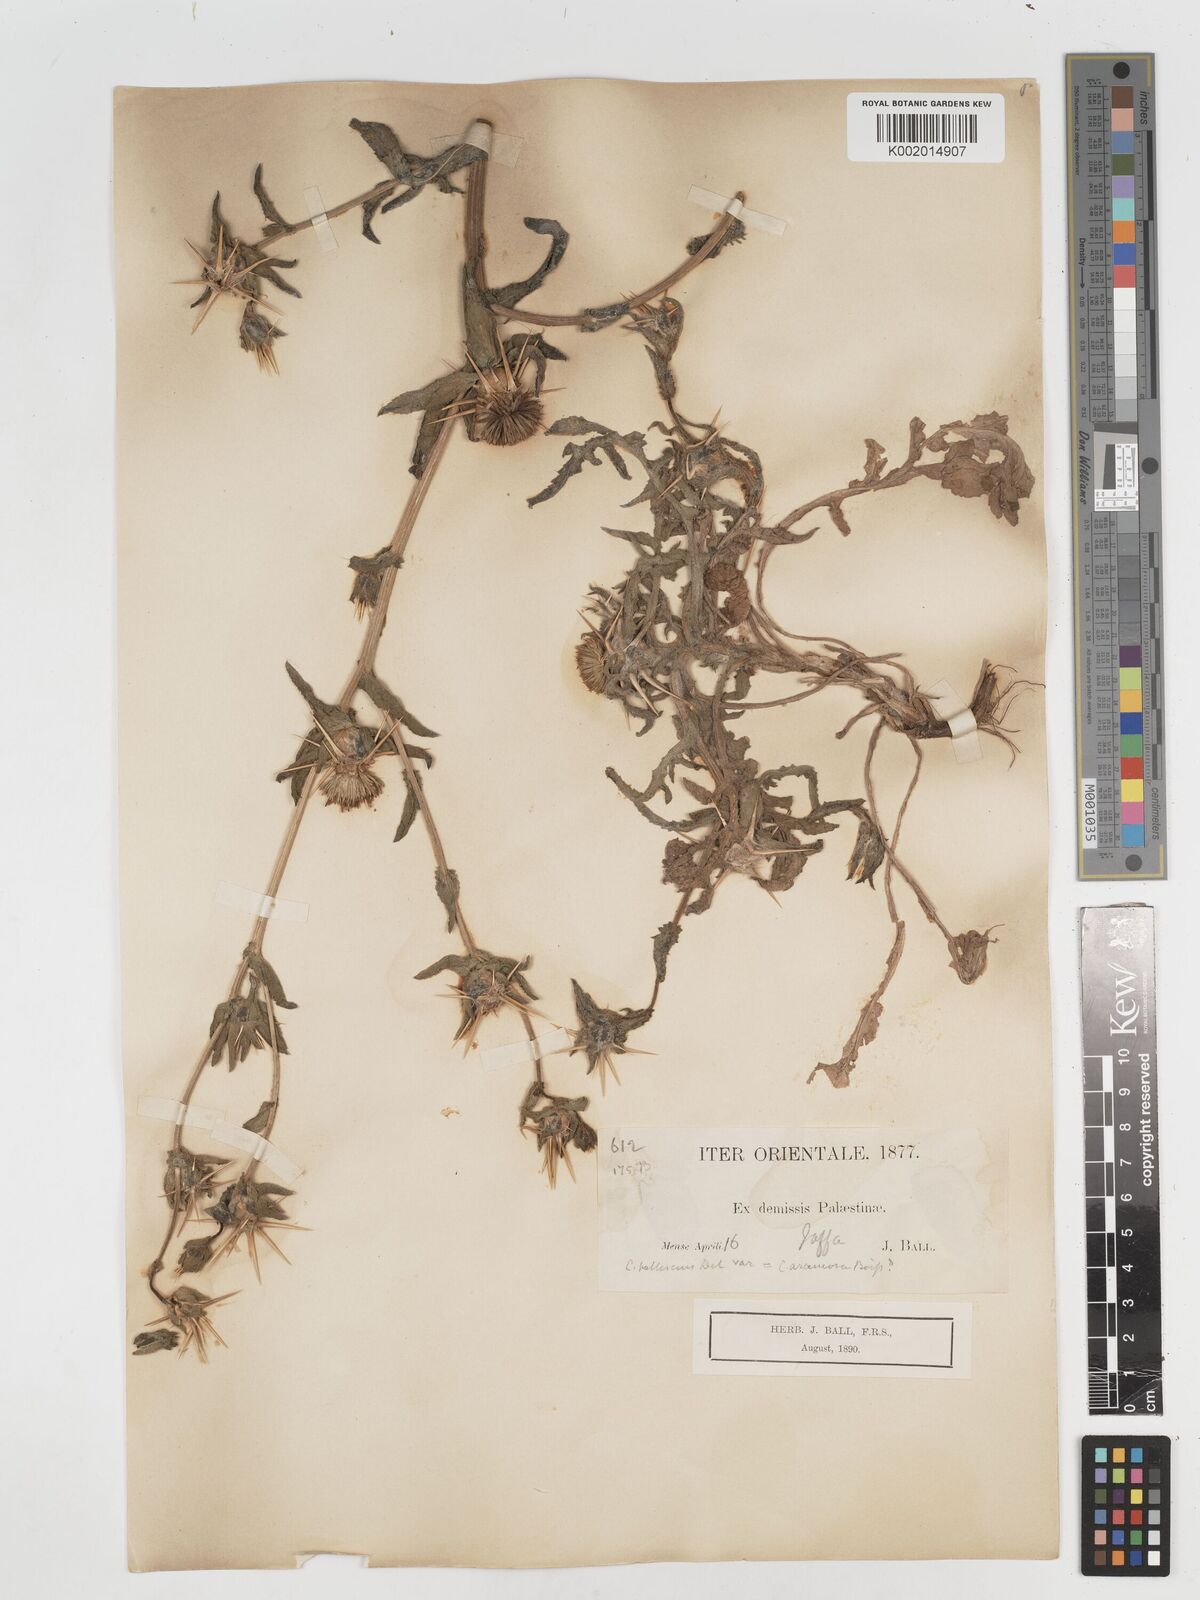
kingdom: Plantae
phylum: Tracheophyta
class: Magnoliopsida
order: Asterales
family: Asteraceae
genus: Centaurea
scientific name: Centaurea procurrens
